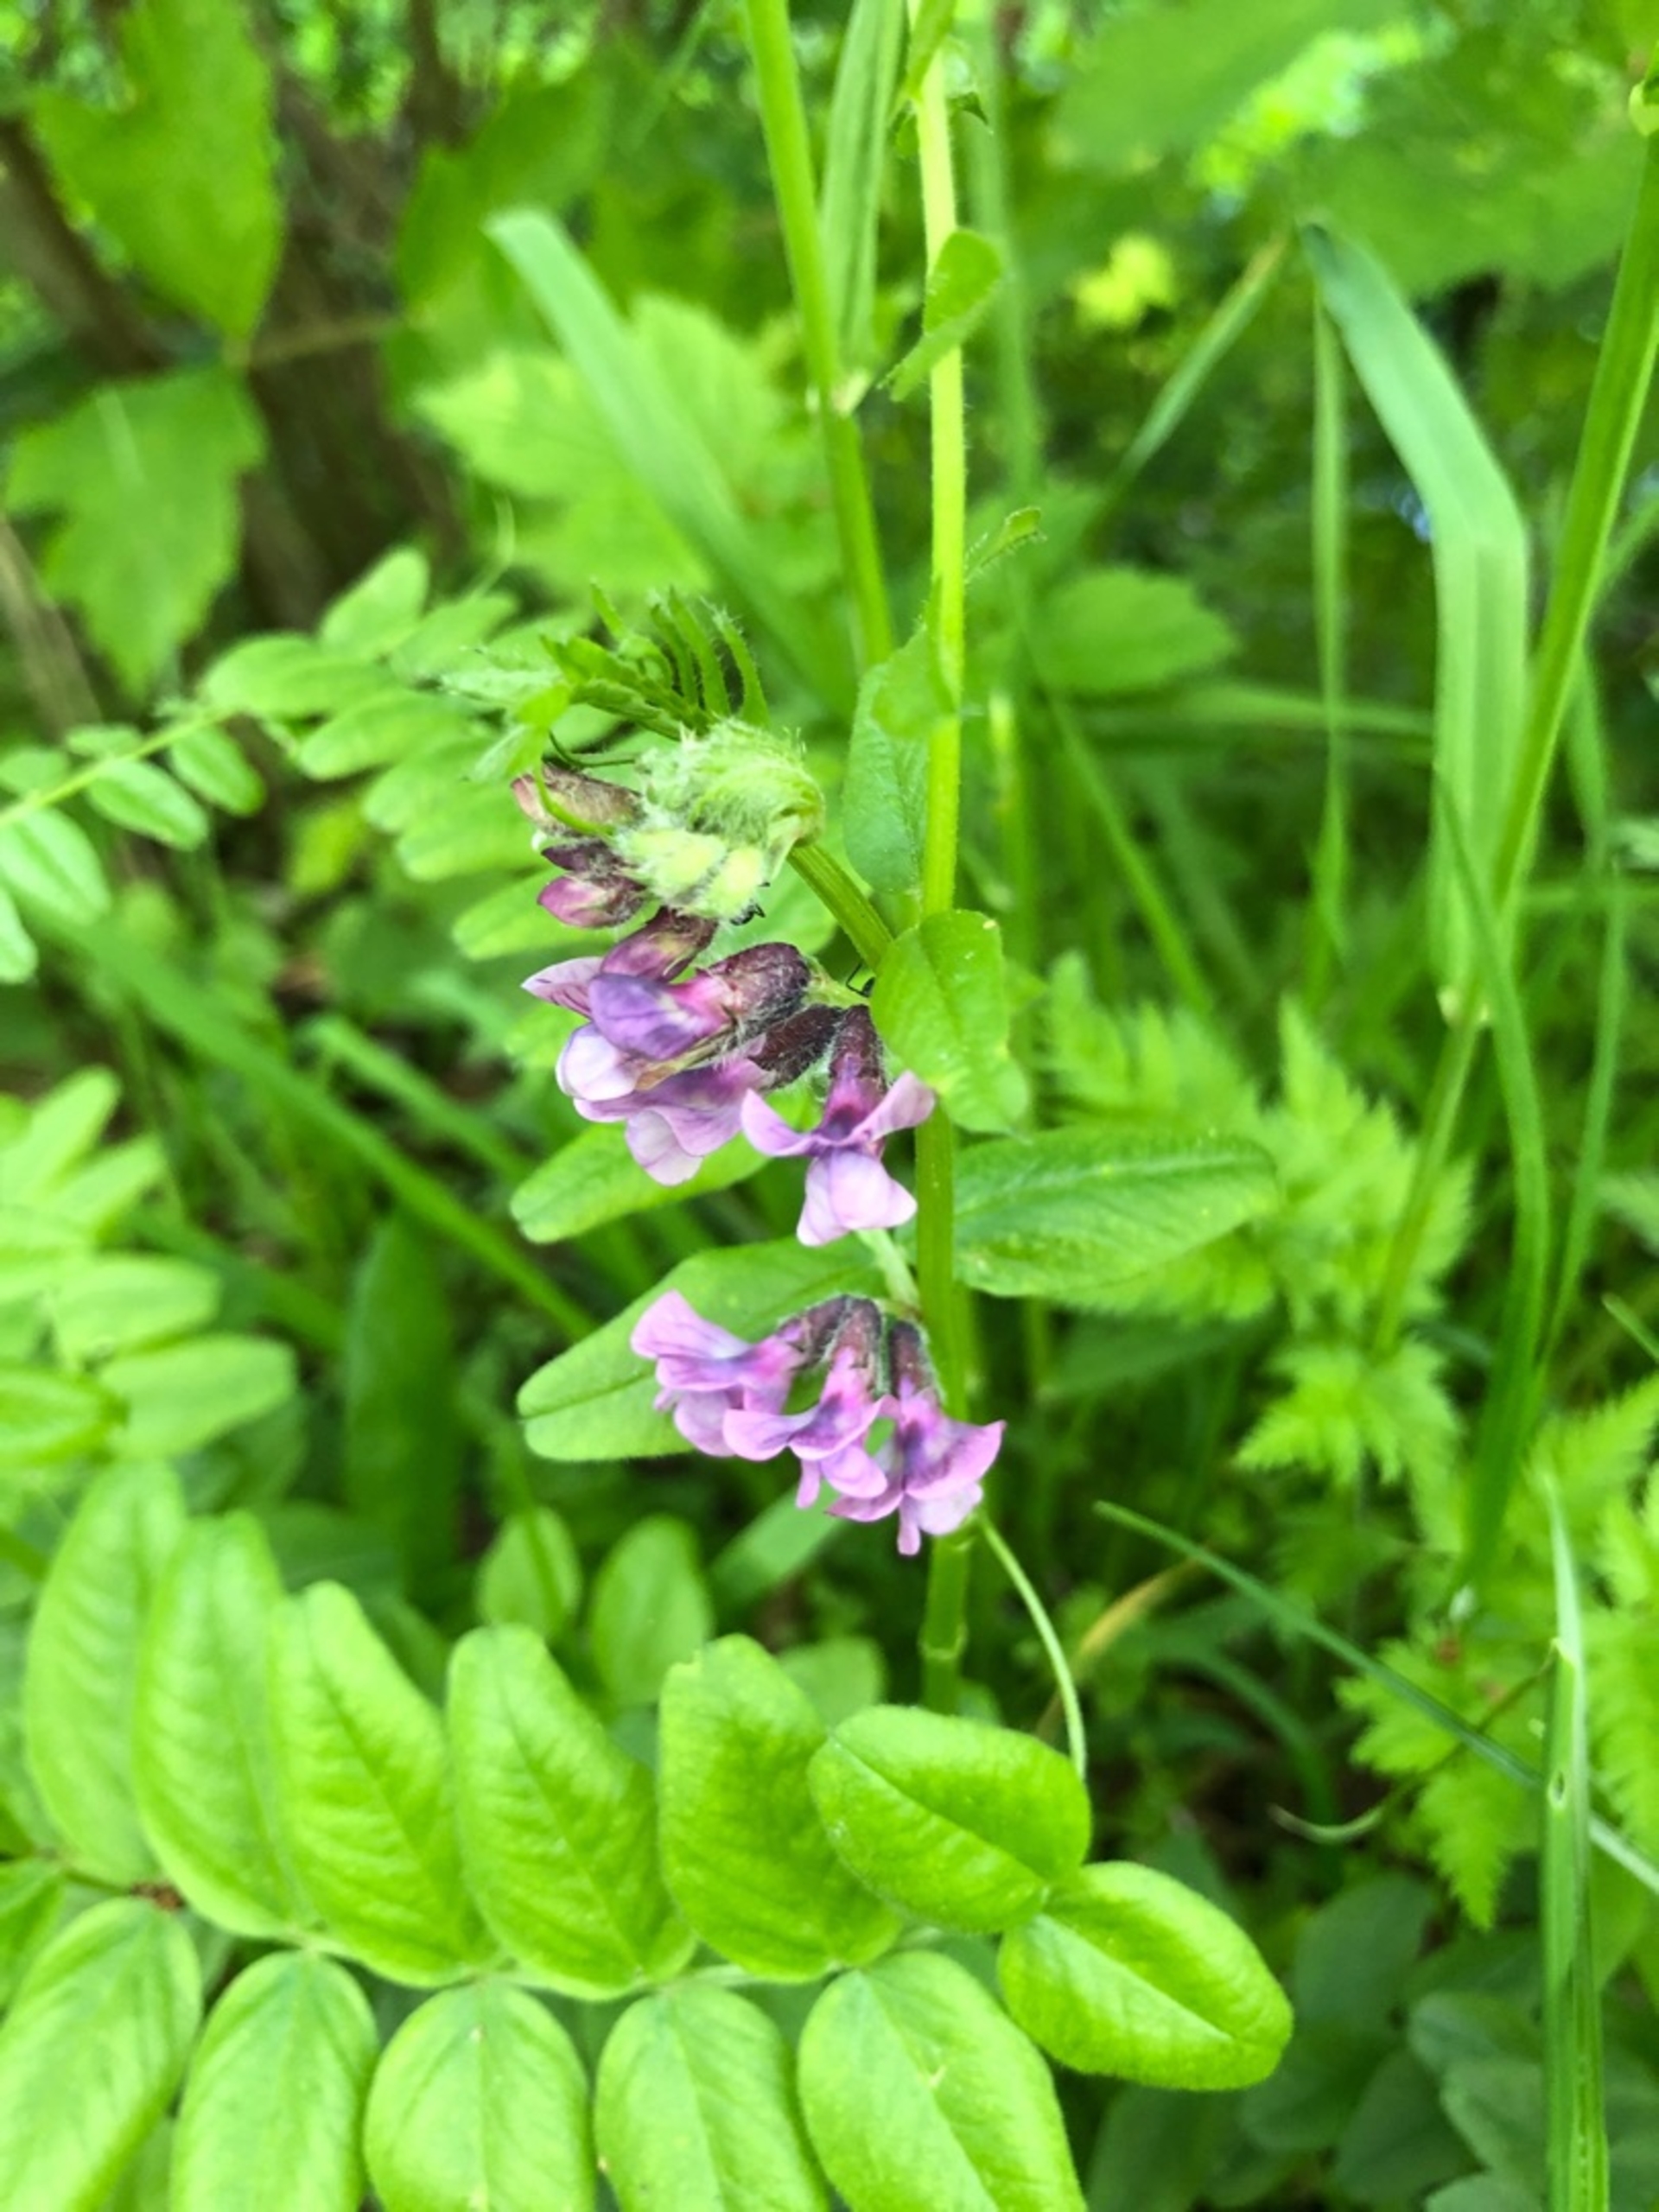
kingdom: Plantae
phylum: Tracheophyta
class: Magnoliopsida
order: Fabales
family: Fabaceae
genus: Vicia
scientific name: Vicia sepium
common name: Gærde-vikke
